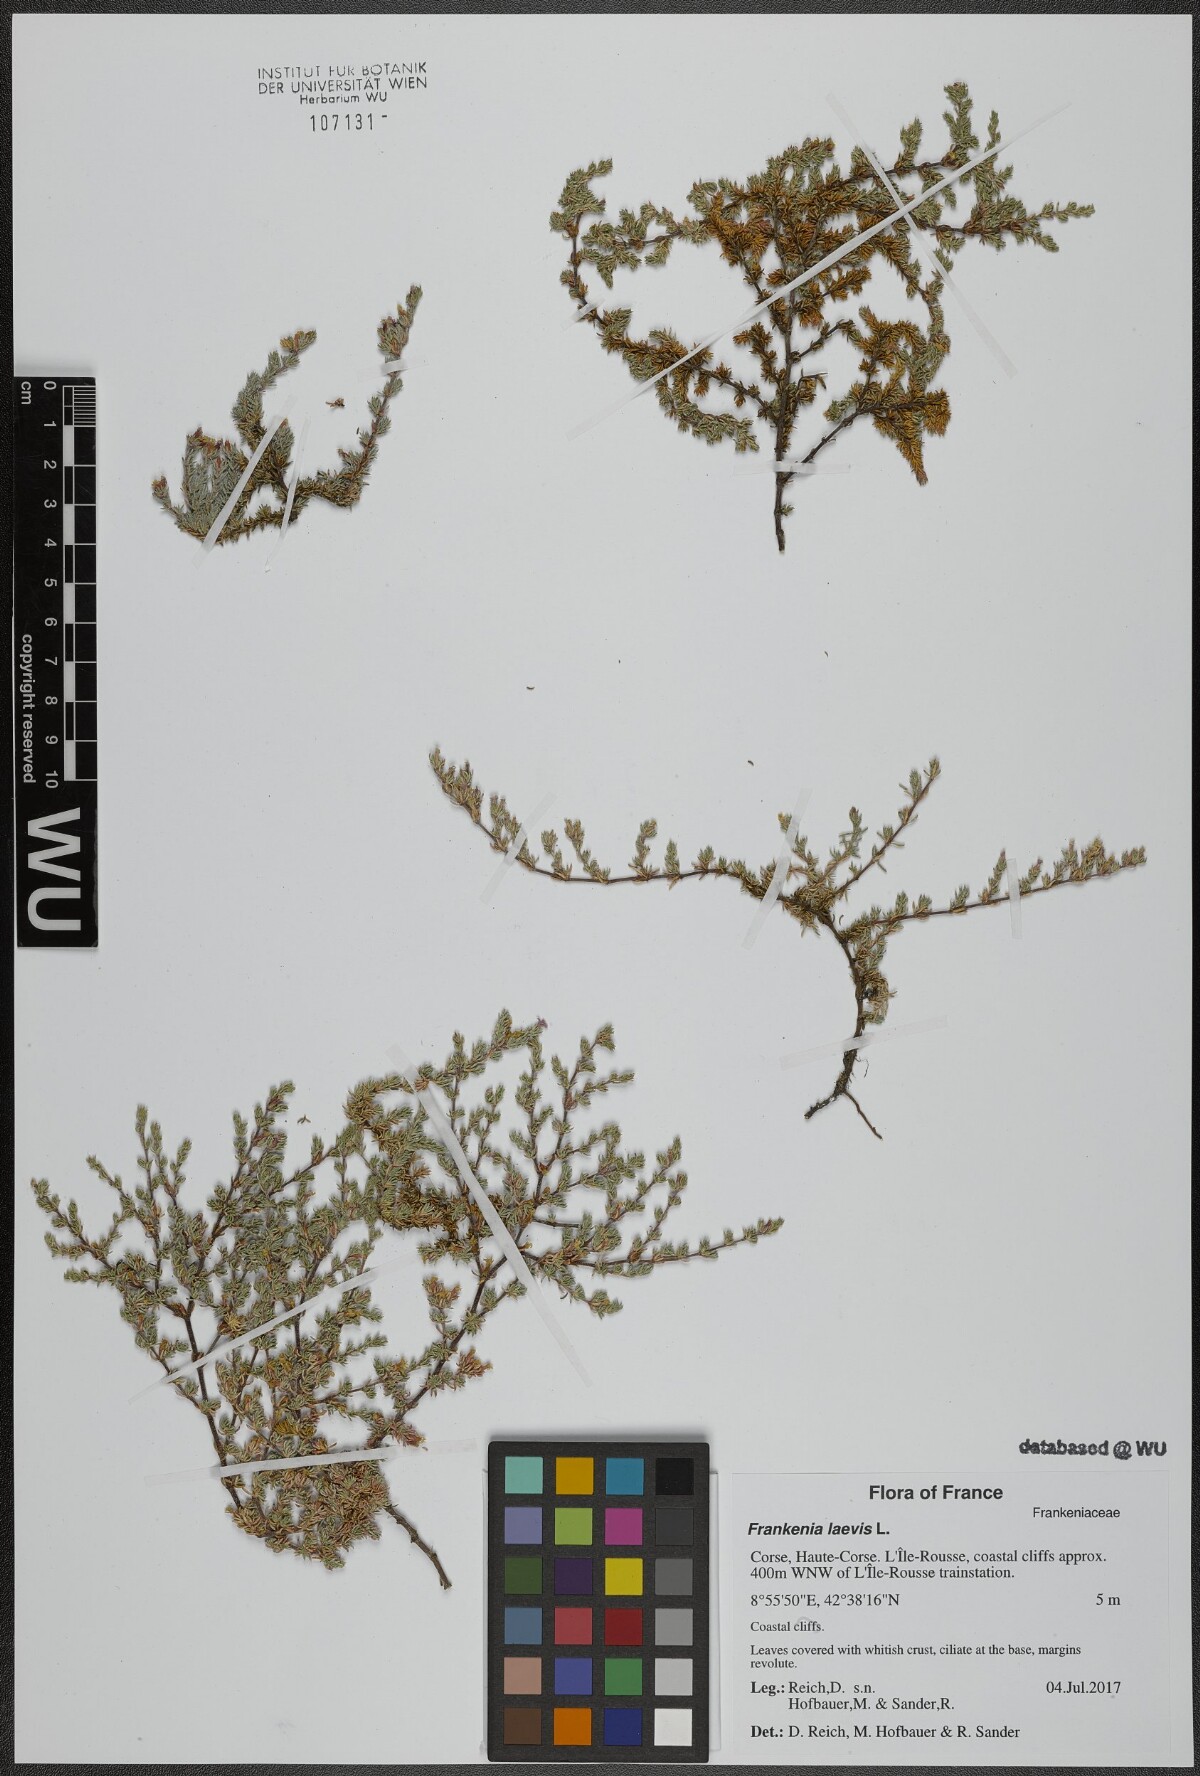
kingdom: Plantae
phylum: Tracheophyta
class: Magnoliopsida
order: Caryophyllales
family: Frankeniaceae
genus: Frankenia
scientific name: Frankenia laevis
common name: Sea-heath
